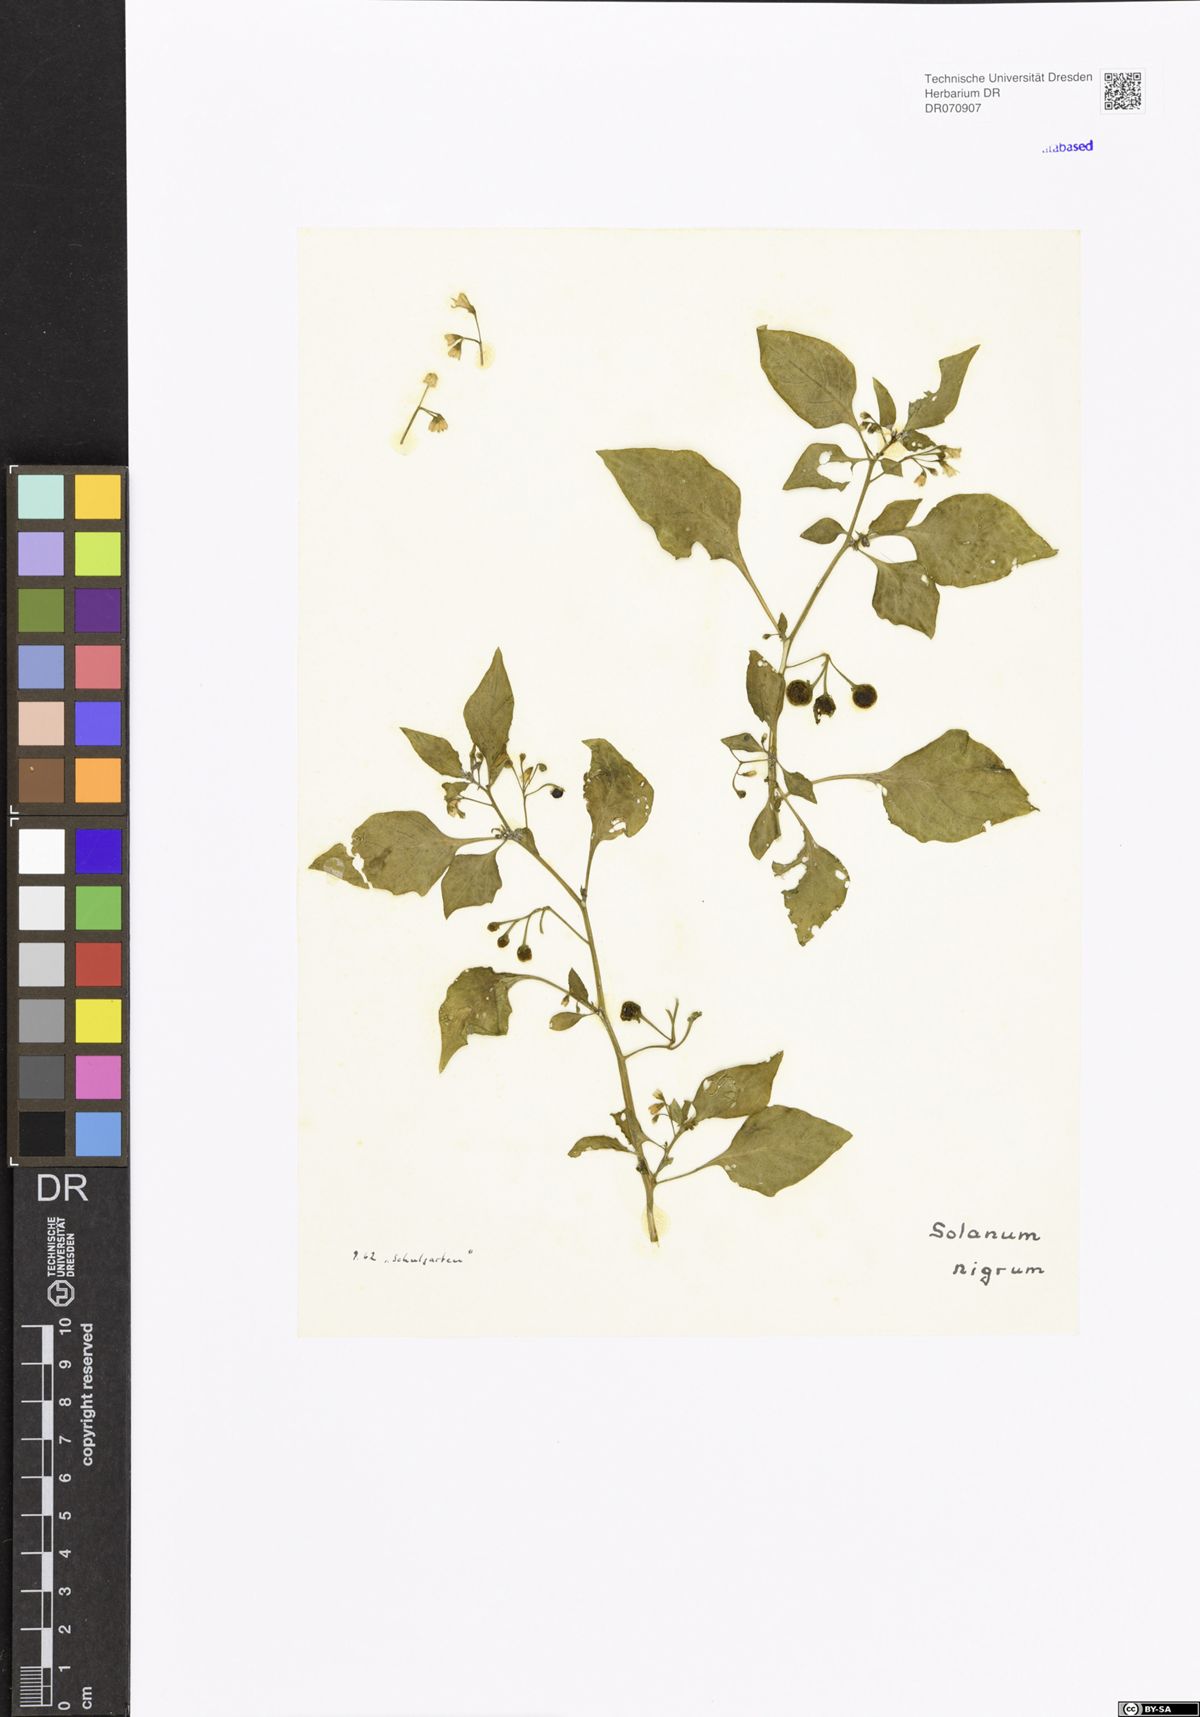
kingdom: Plantae
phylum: Tracheophyta
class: Magnoliopsida
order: Solanales
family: Solanaceae
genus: Solanum
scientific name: Solanum nigrum
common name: Black nightshade
